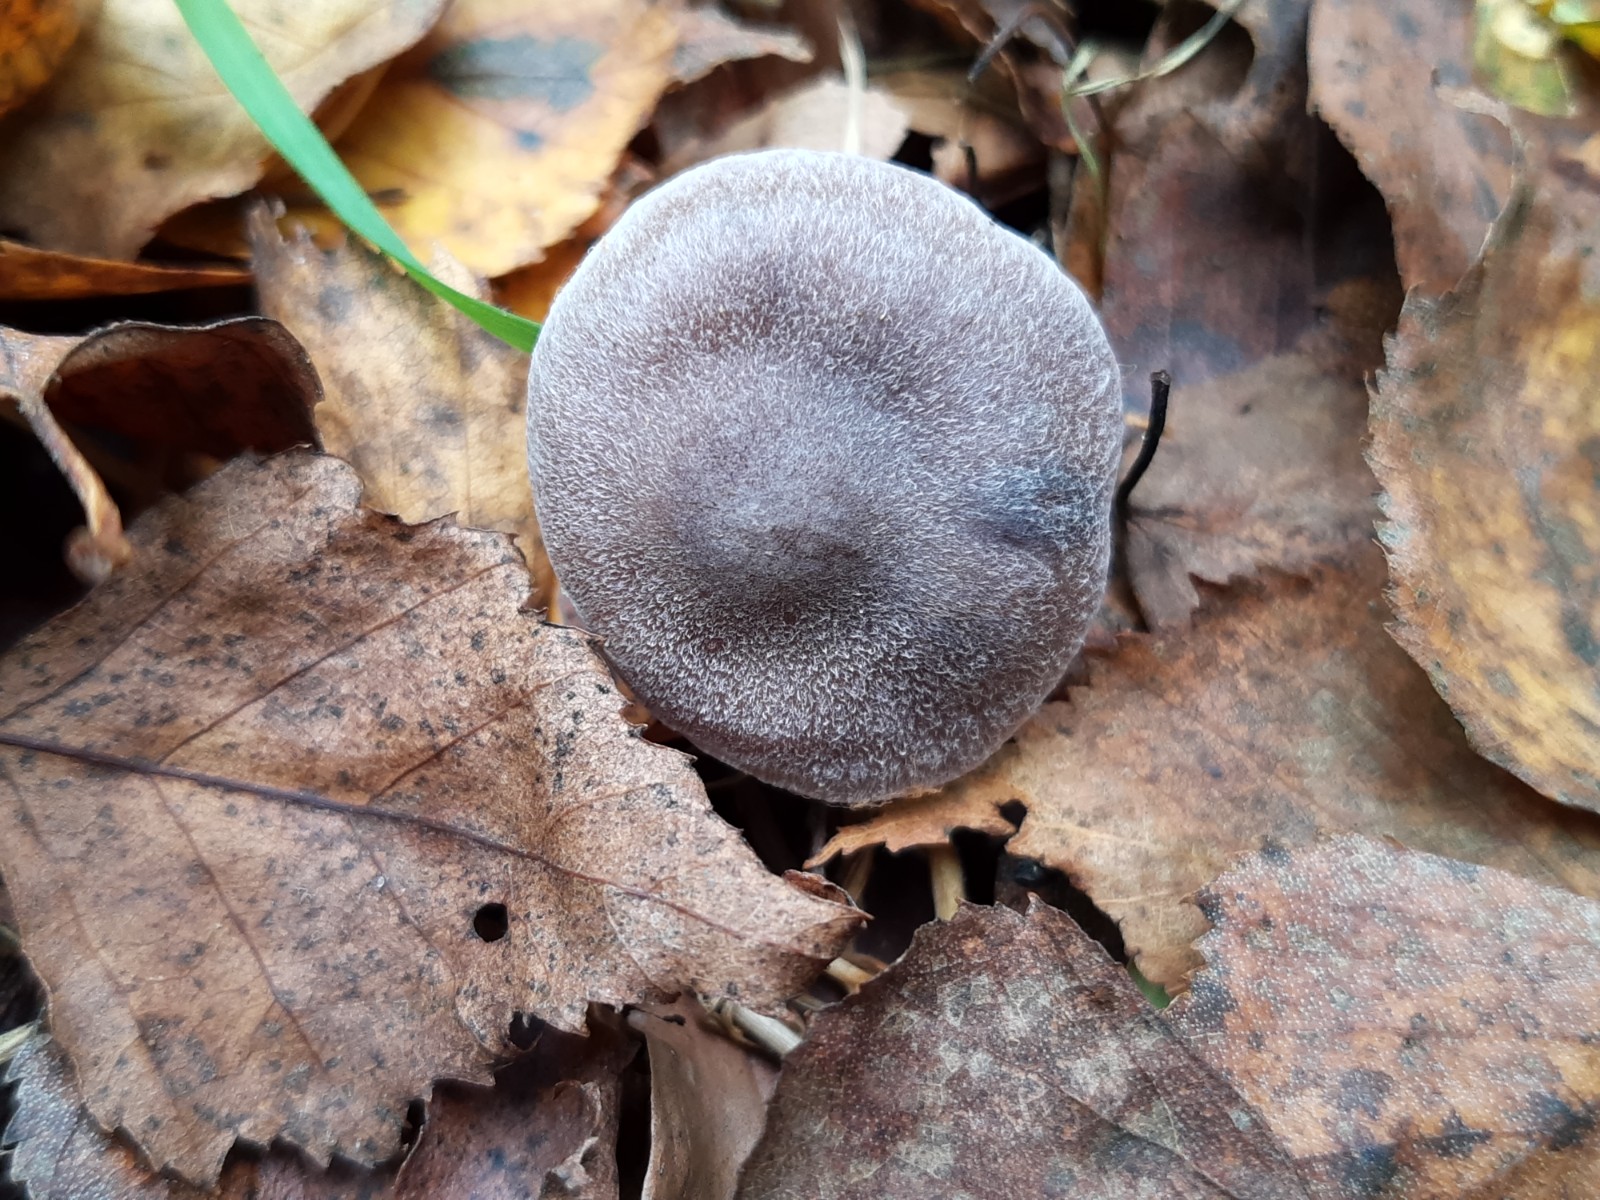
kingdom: Fungi
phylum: Basidiomycota
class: Agaricomycetes
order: Agaricales
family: Cortinariaceae
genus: Cortinarius
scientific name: Cortinarius
